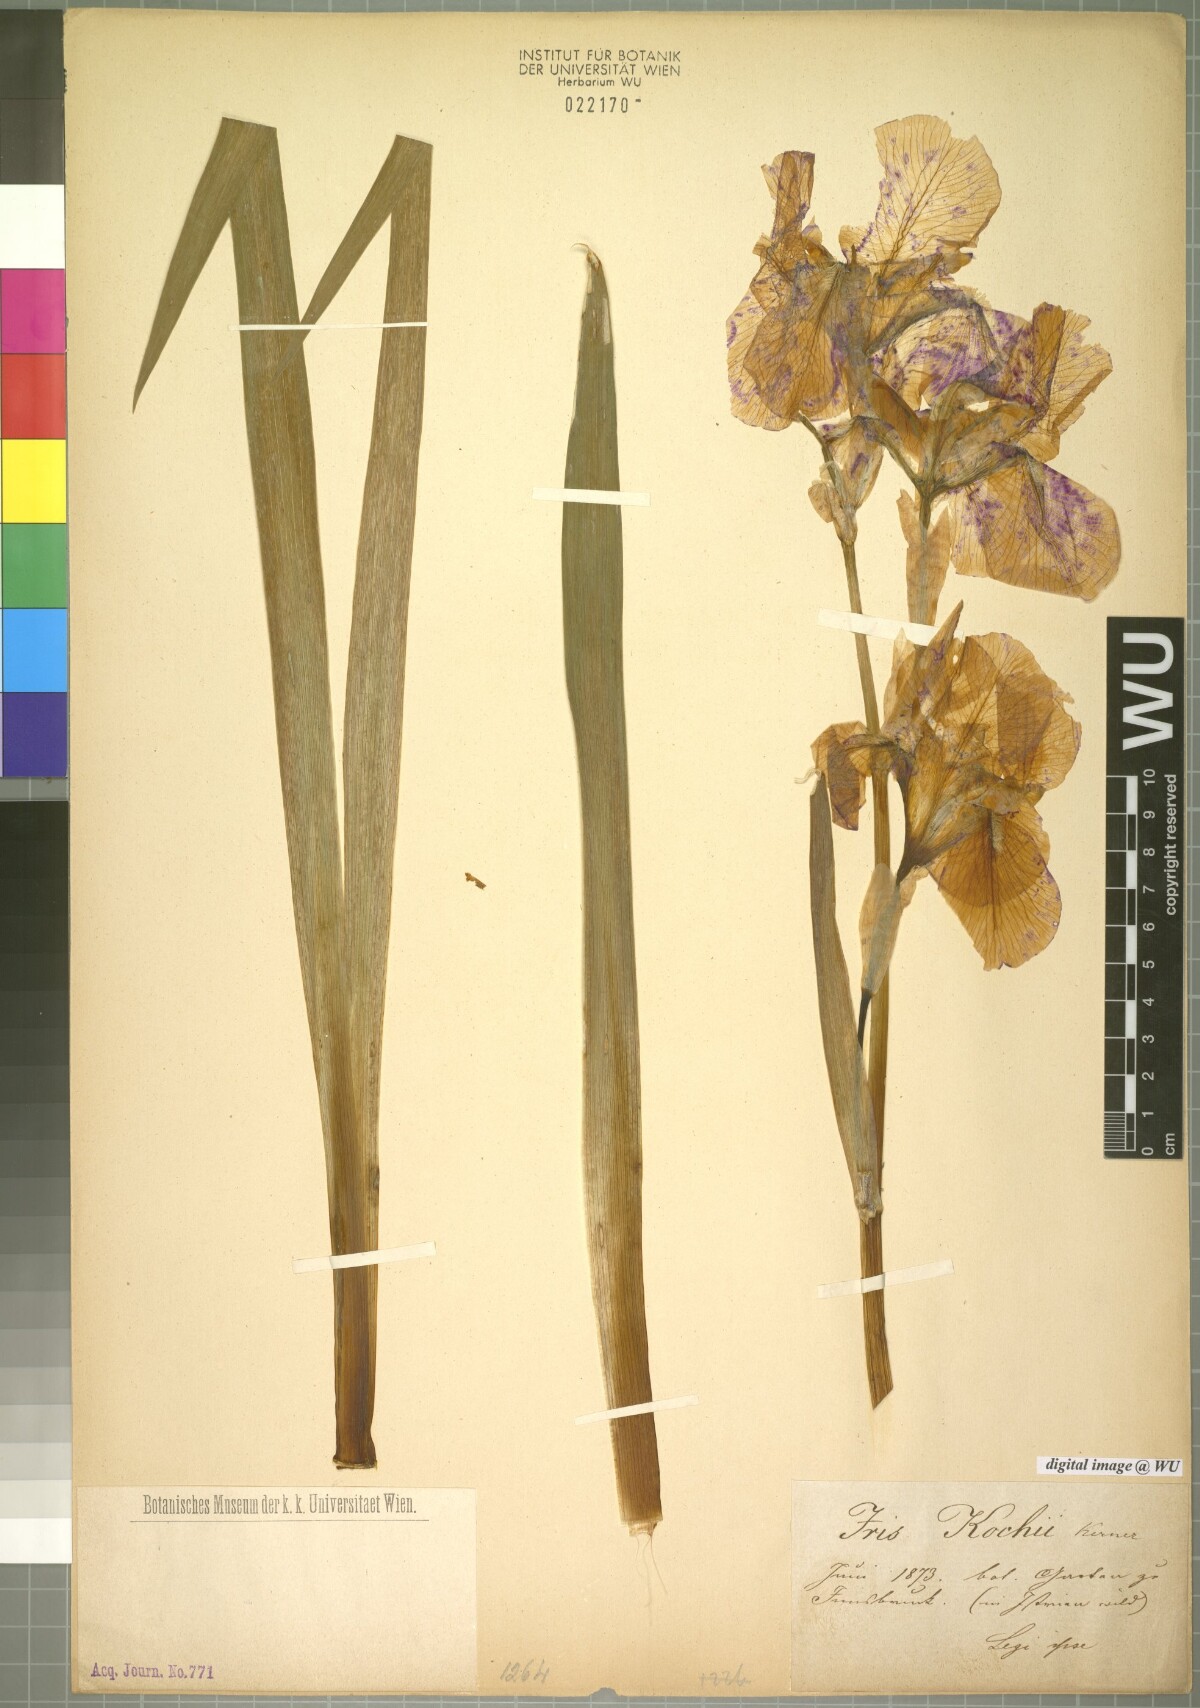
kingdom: Plantae
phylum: Tracheophyta
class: Liliopsida
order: Asparagales
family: Iridaceae
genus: Iris
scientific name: Iris kochii
